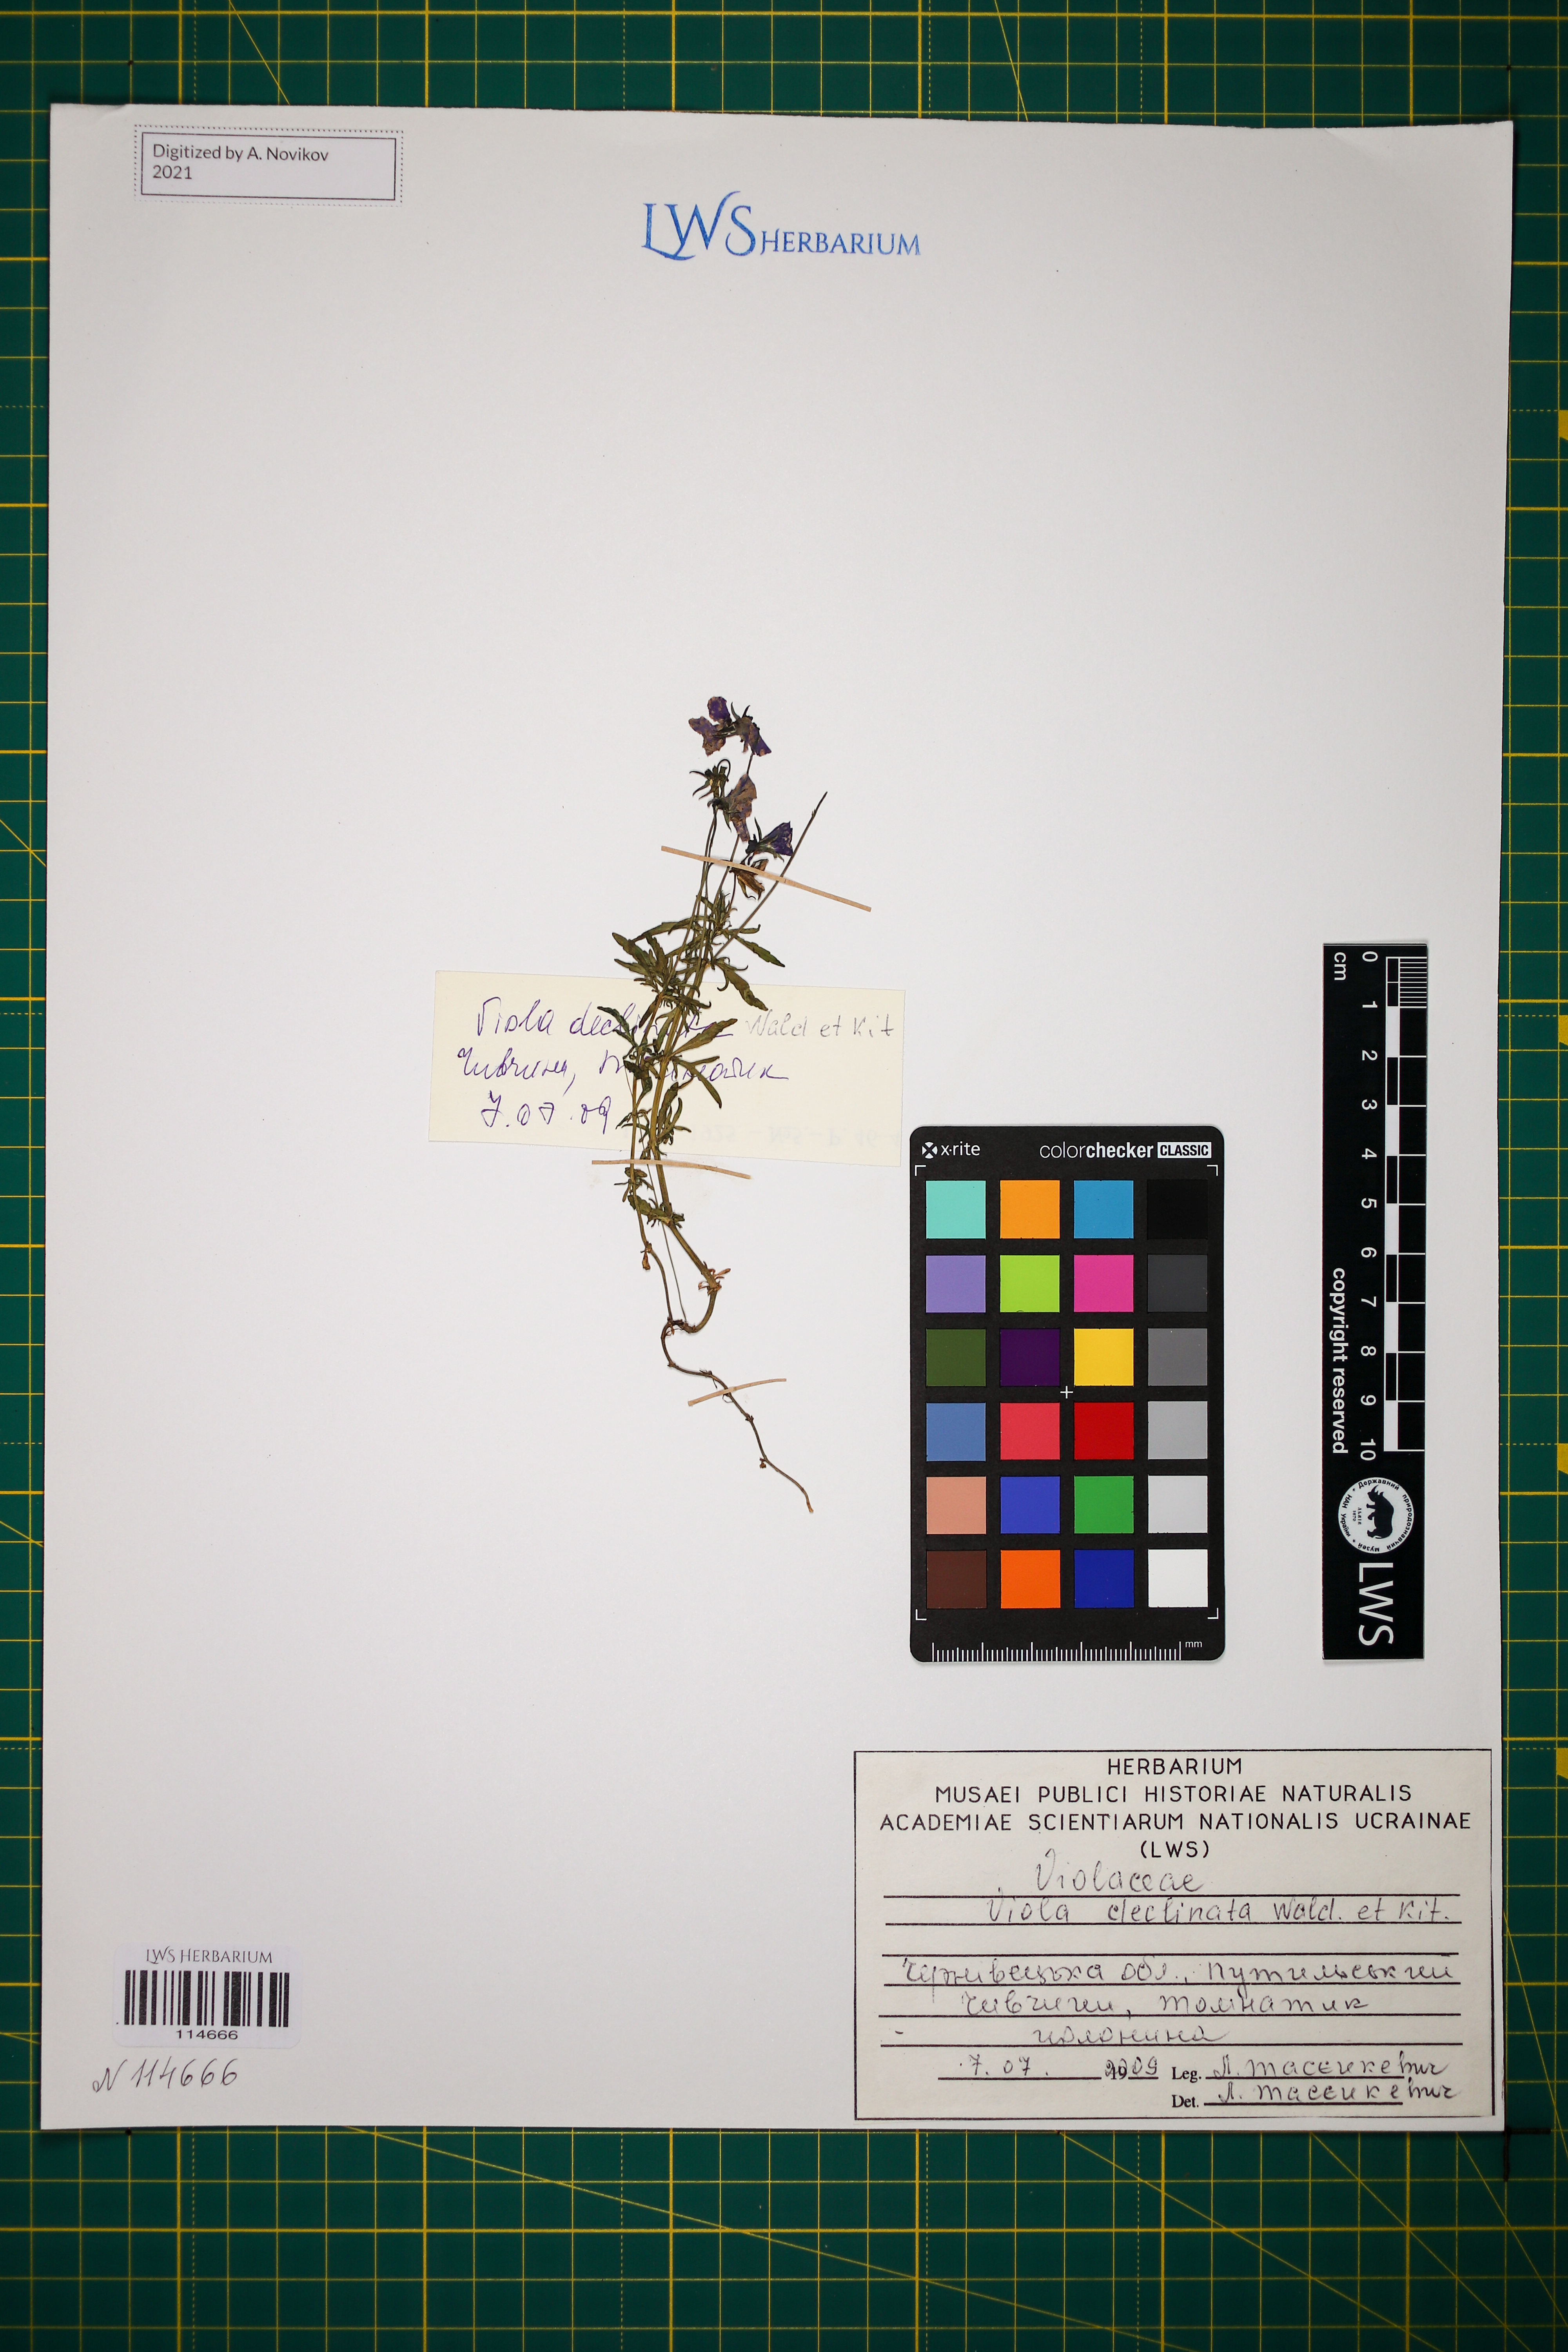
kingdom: Plantae
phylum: Tracheophyta
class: Magnoliopsida
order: Malpighiales
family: Violaceae
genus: Viola
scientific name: Viola declinata
